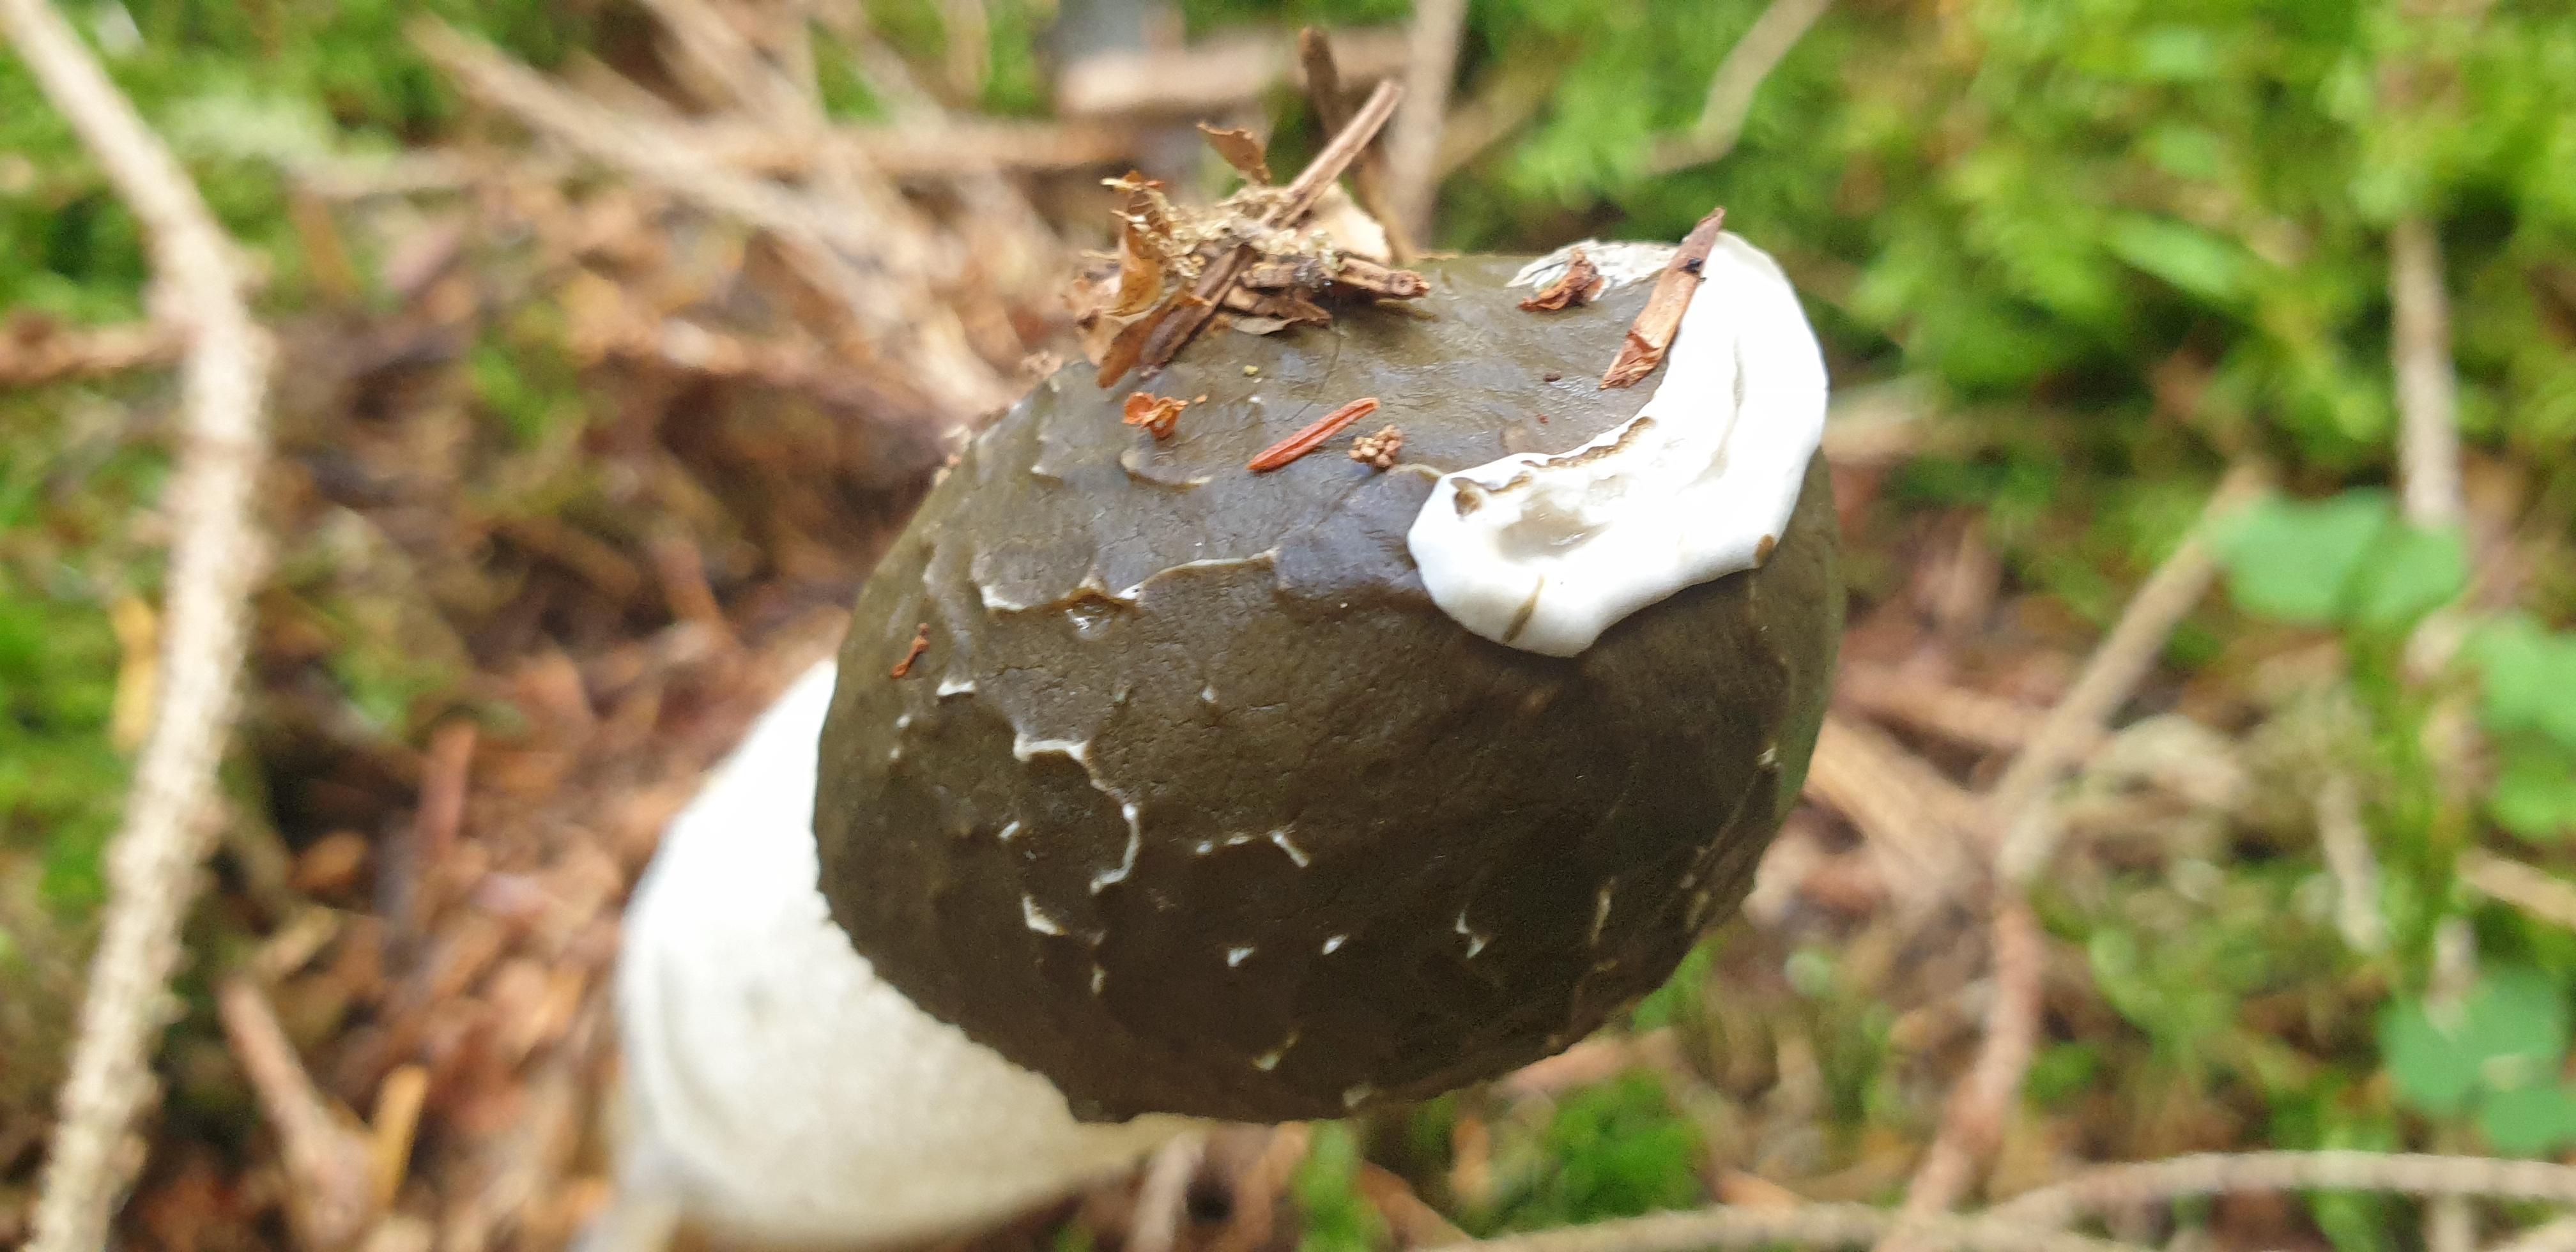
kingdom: Fungi
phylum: Basidiomycota
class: Agaricomycetes
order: Phallales
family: Phallaceae
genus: Phallus
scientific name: Phallus impudicus
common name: almindelig stinksvamp
